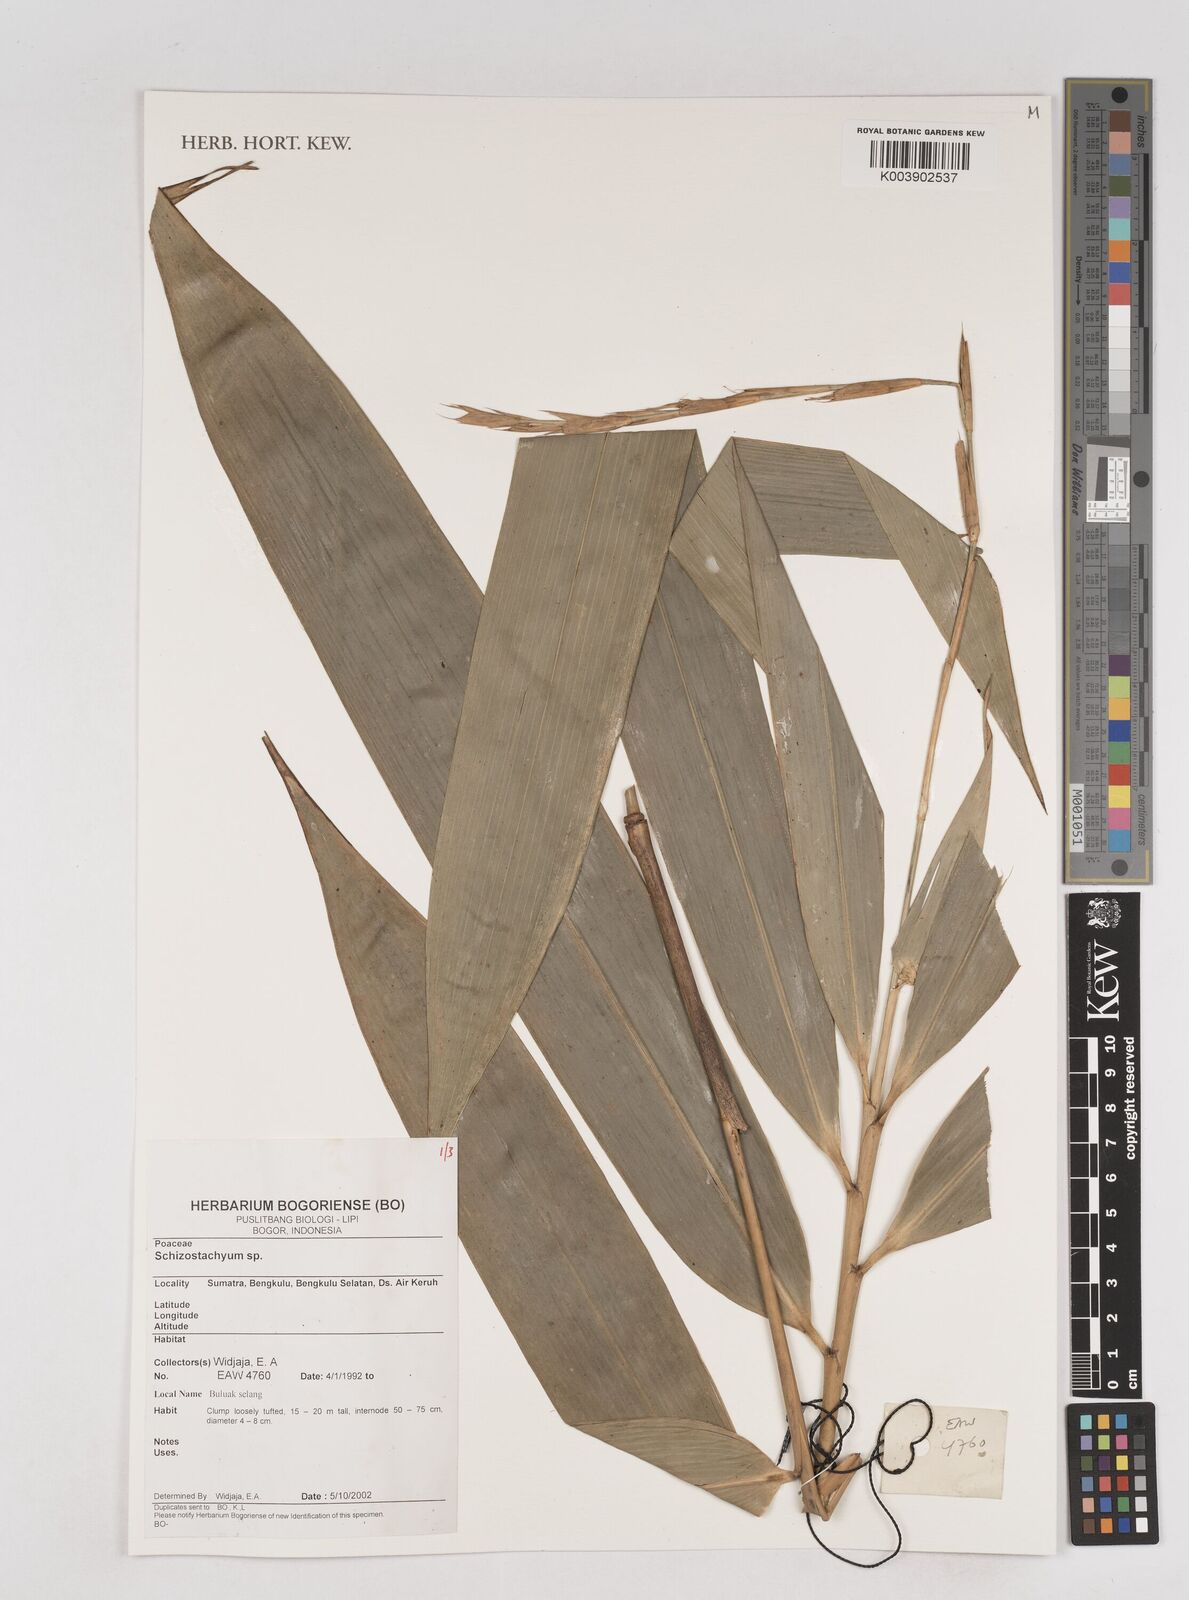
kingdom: Plantae
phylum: Tracheophyta
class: Liliopsida
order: Poales
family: Poaceae
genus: Schizostachyum
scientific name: Schizostachyum
